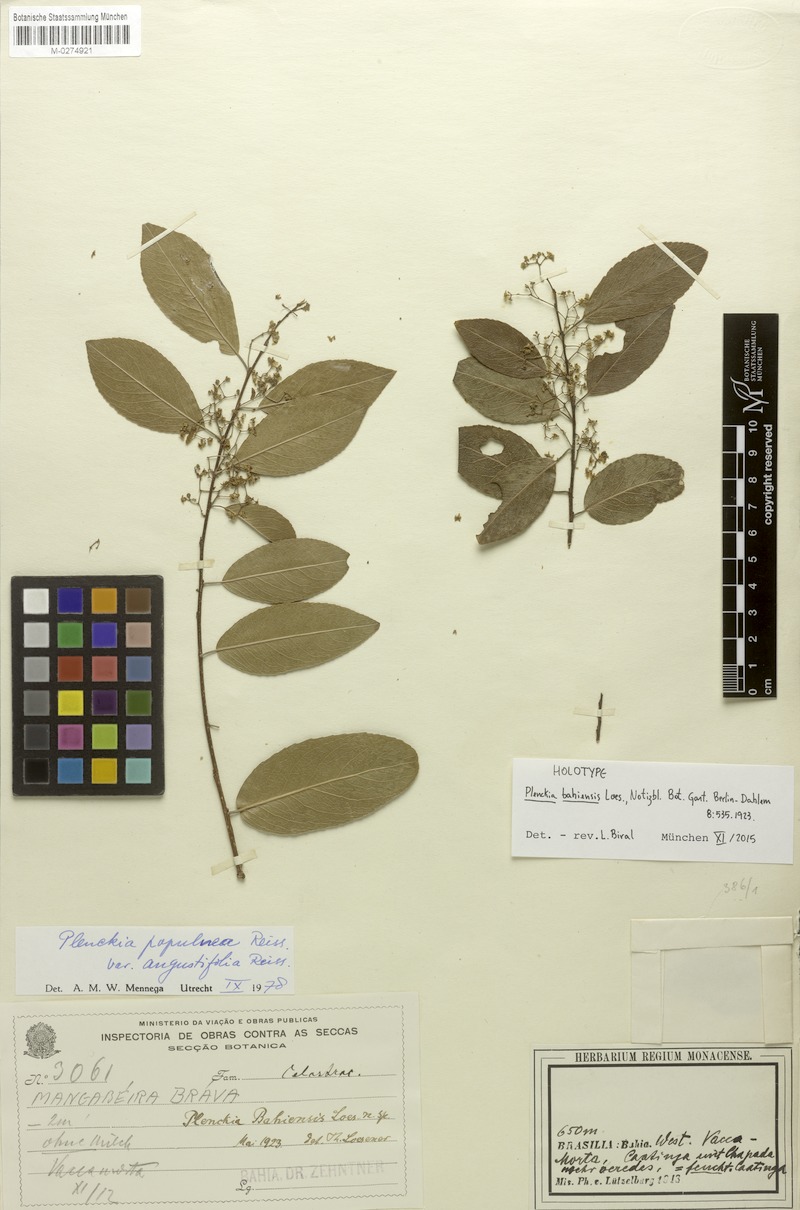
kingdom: Plantae
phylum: Tracheophyta
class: Magnoliopsida
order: Celastrales
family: Celastraceae
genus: Plenckia
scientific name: Plenckia populnea
